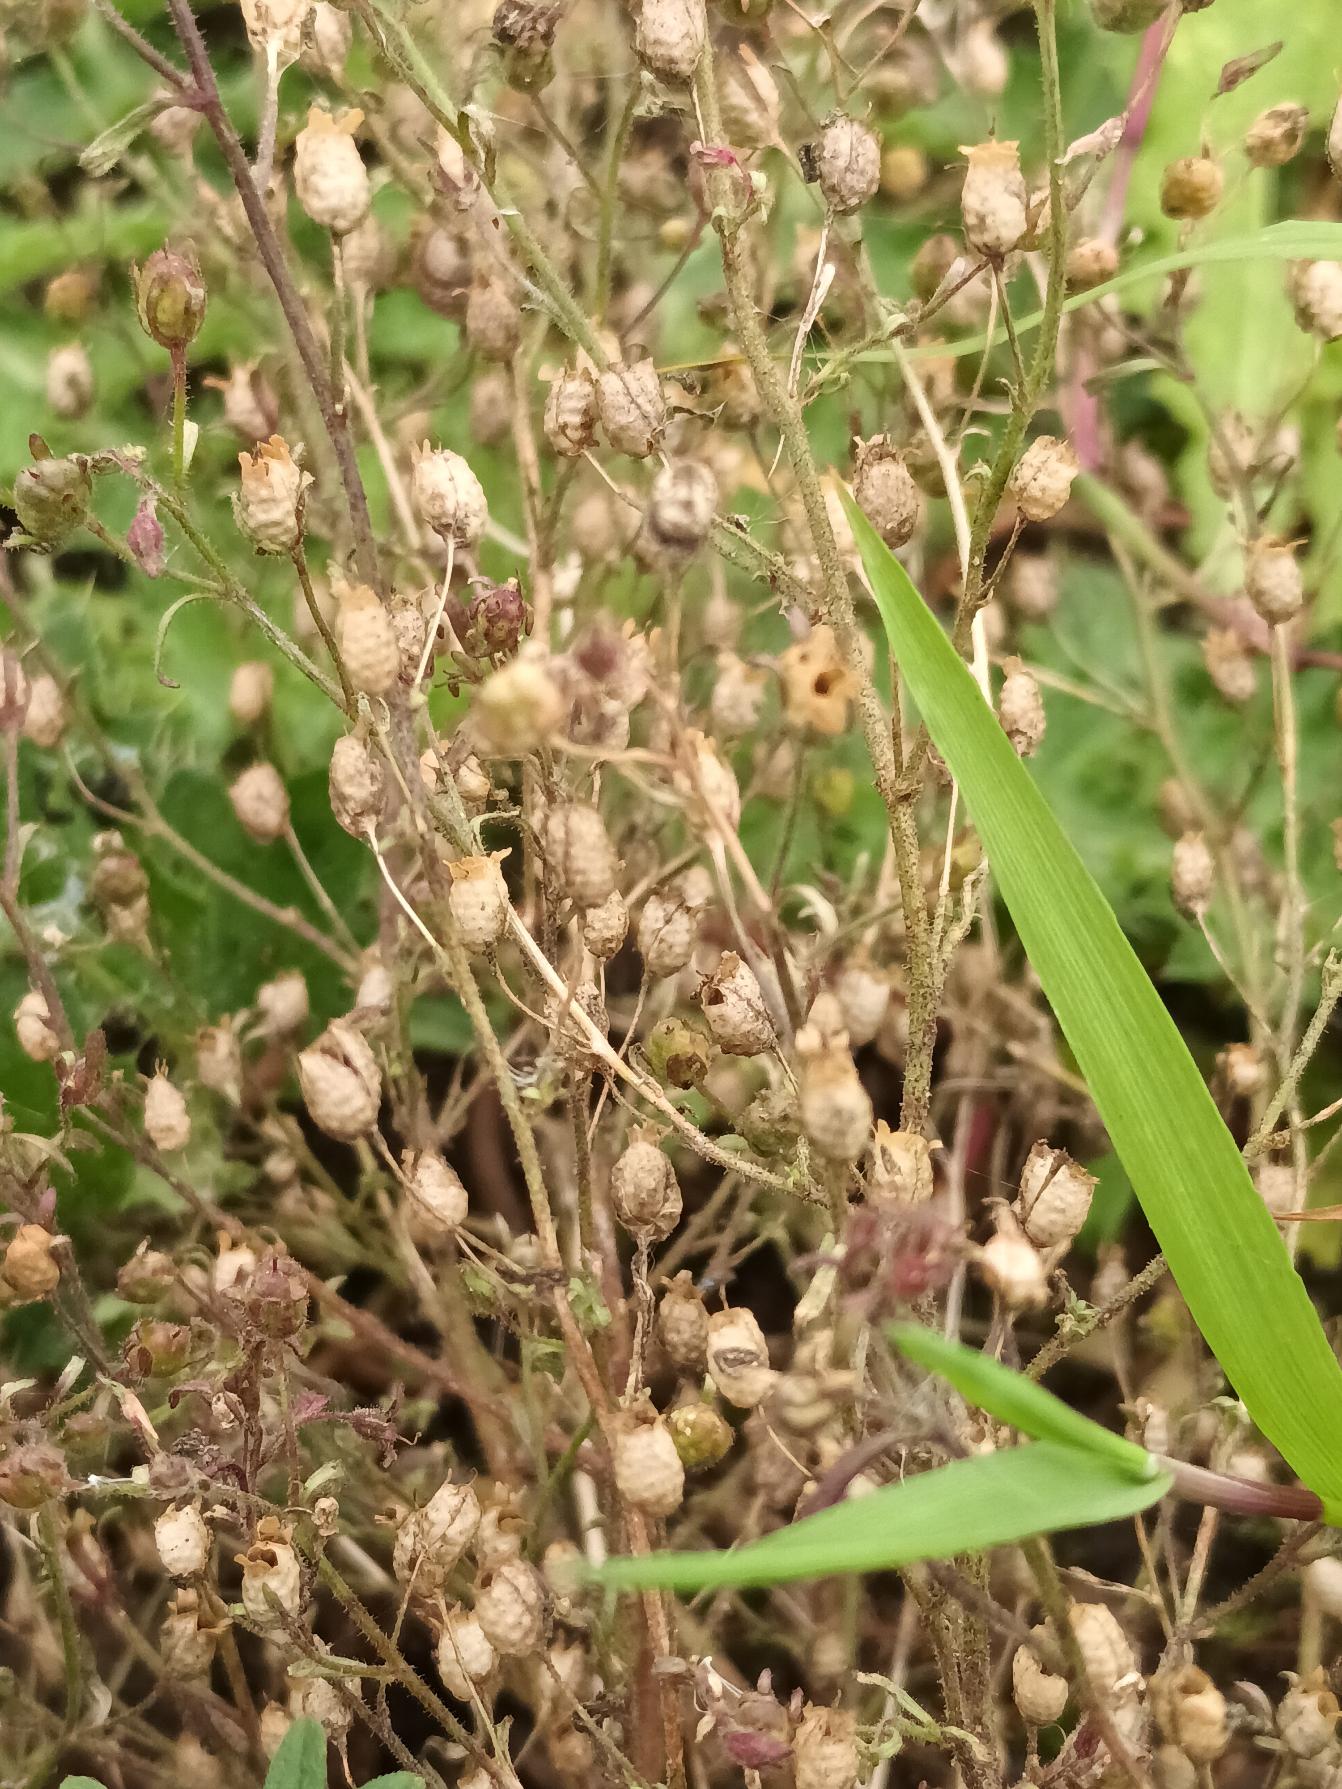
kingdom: Plantae
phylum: Tracheophyta
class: Magnoliopsida
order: Lamiales
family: Plantaginaceae
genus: Chaenorhinum
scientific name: Chaenorhinum minus
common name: Liden torskemund
